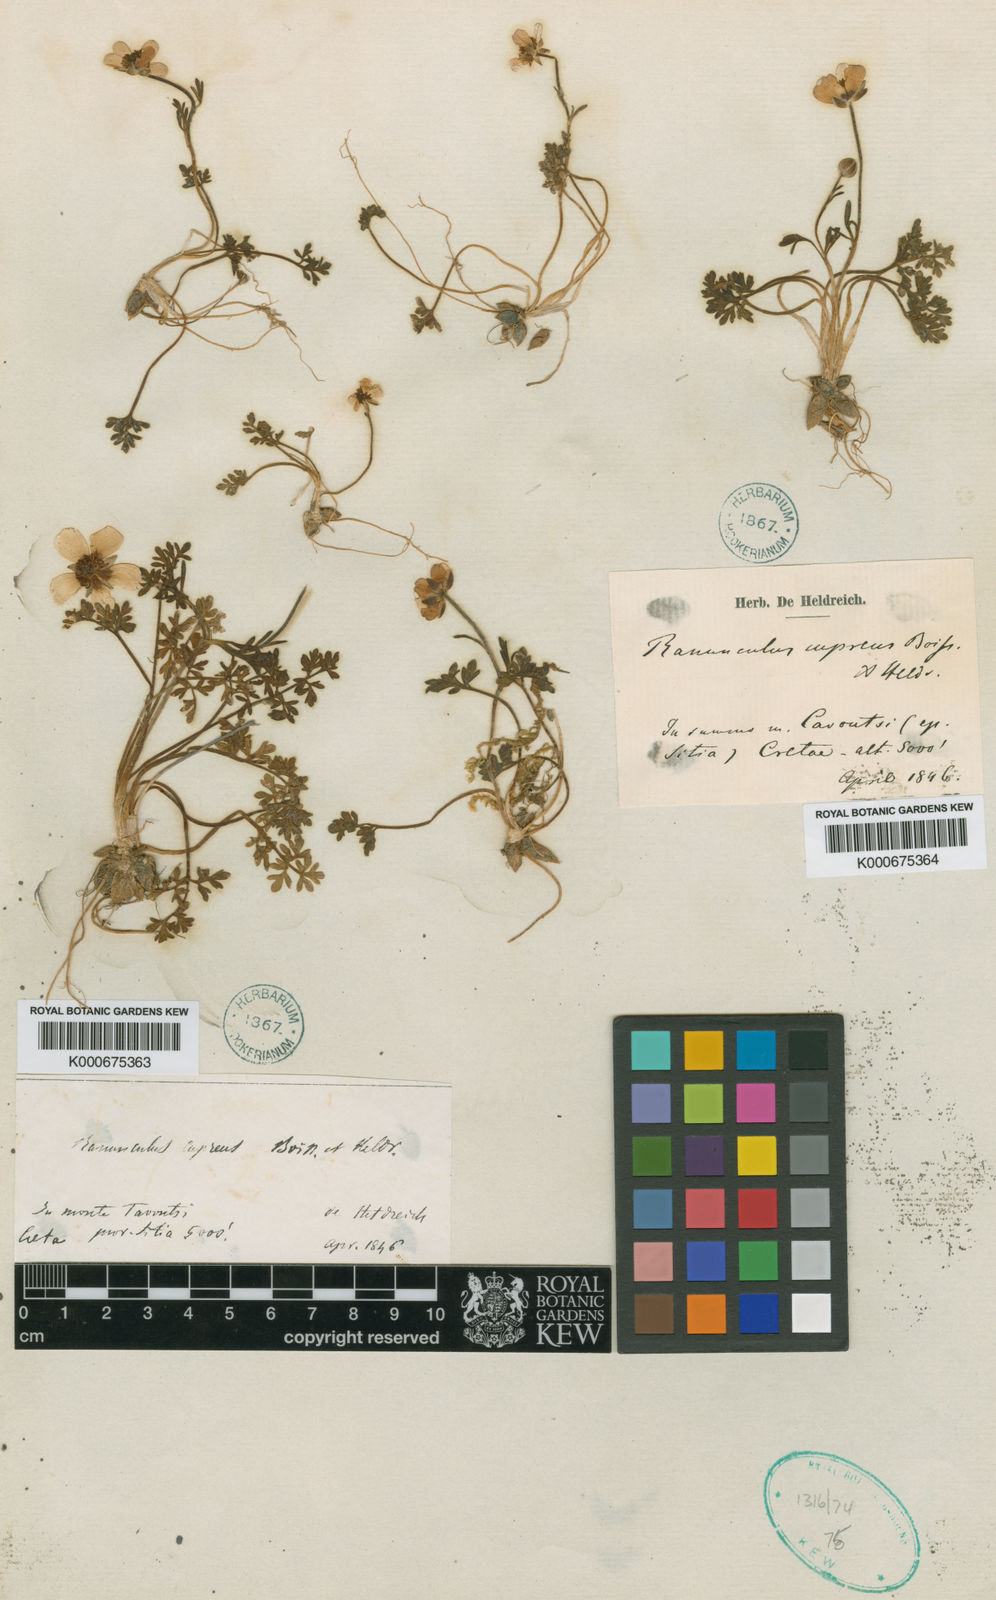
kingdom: Plantae
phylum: Tracheophyta
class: Magnoliopsida
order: Ranunculales
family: Ranunculaceae
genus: Ranunculus
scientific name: Ranunculus cupreus
